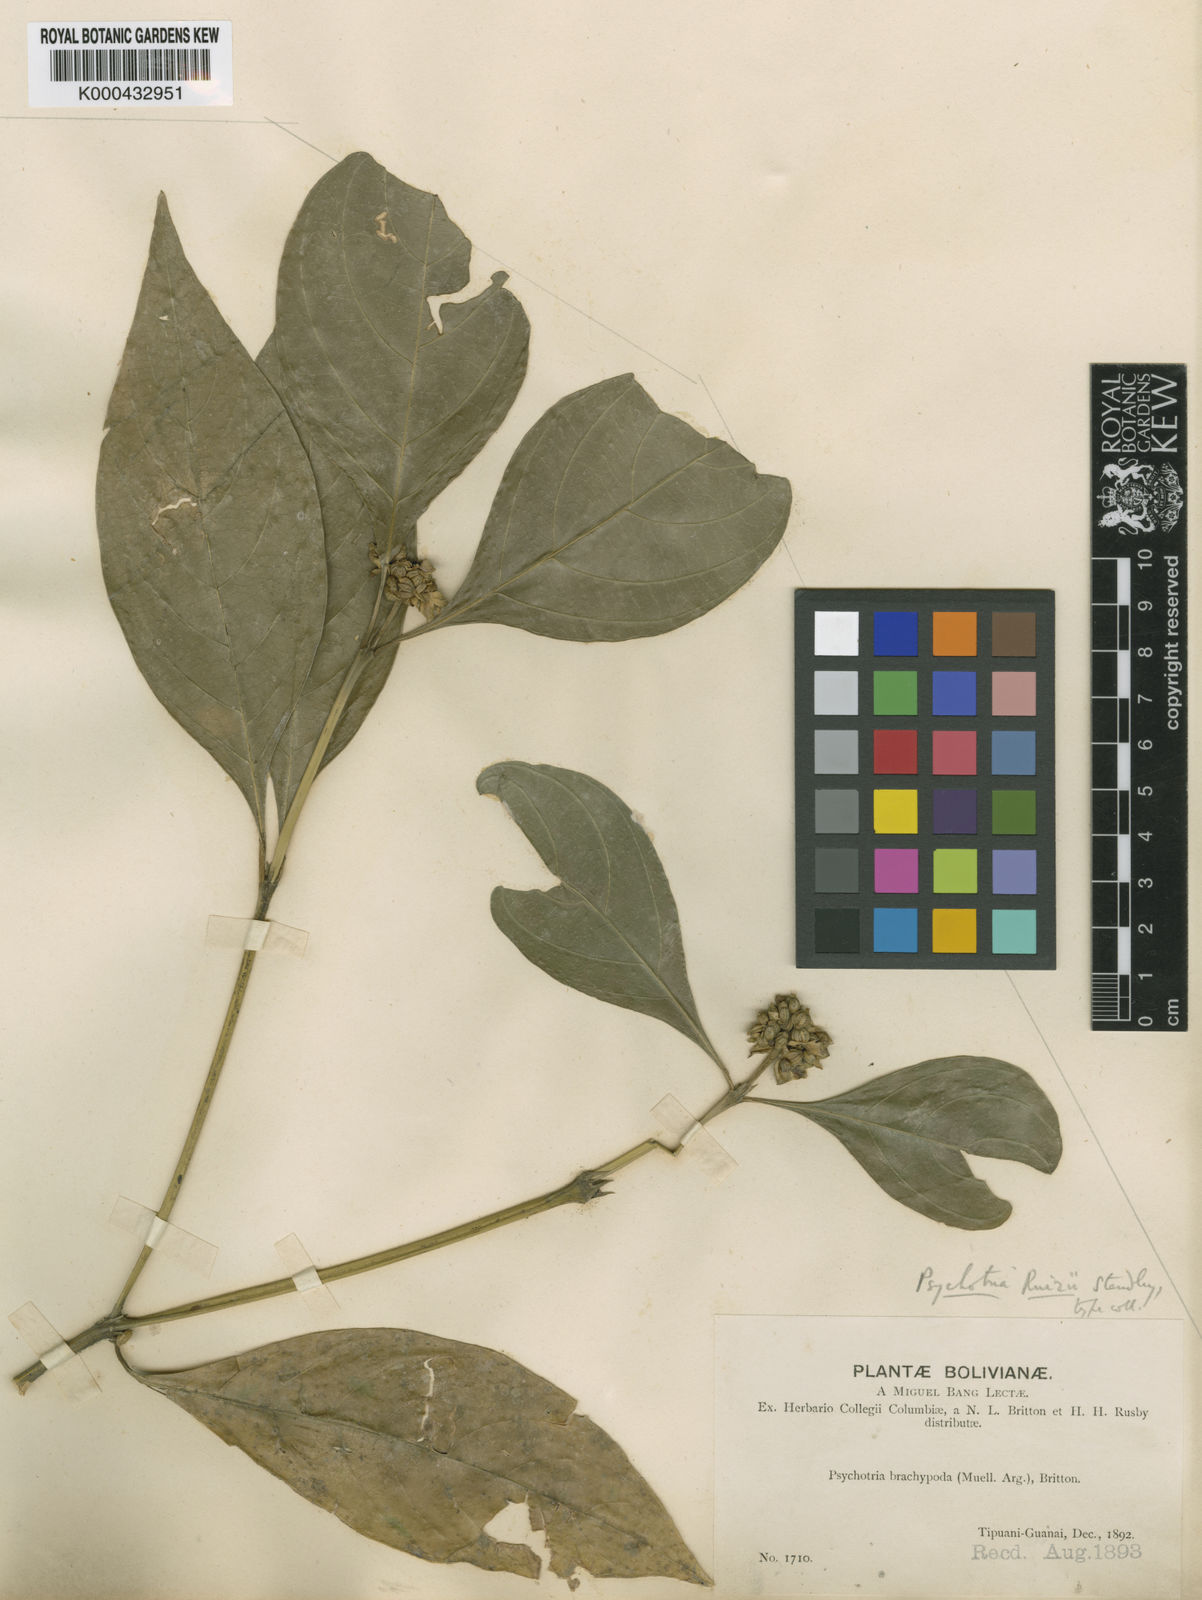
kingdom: Plantae
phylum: Tracheophyta
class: Magnoliopsida
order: Gentianales
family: Rubiaceae
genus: Psychotria
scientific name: Psychotria ruizii
